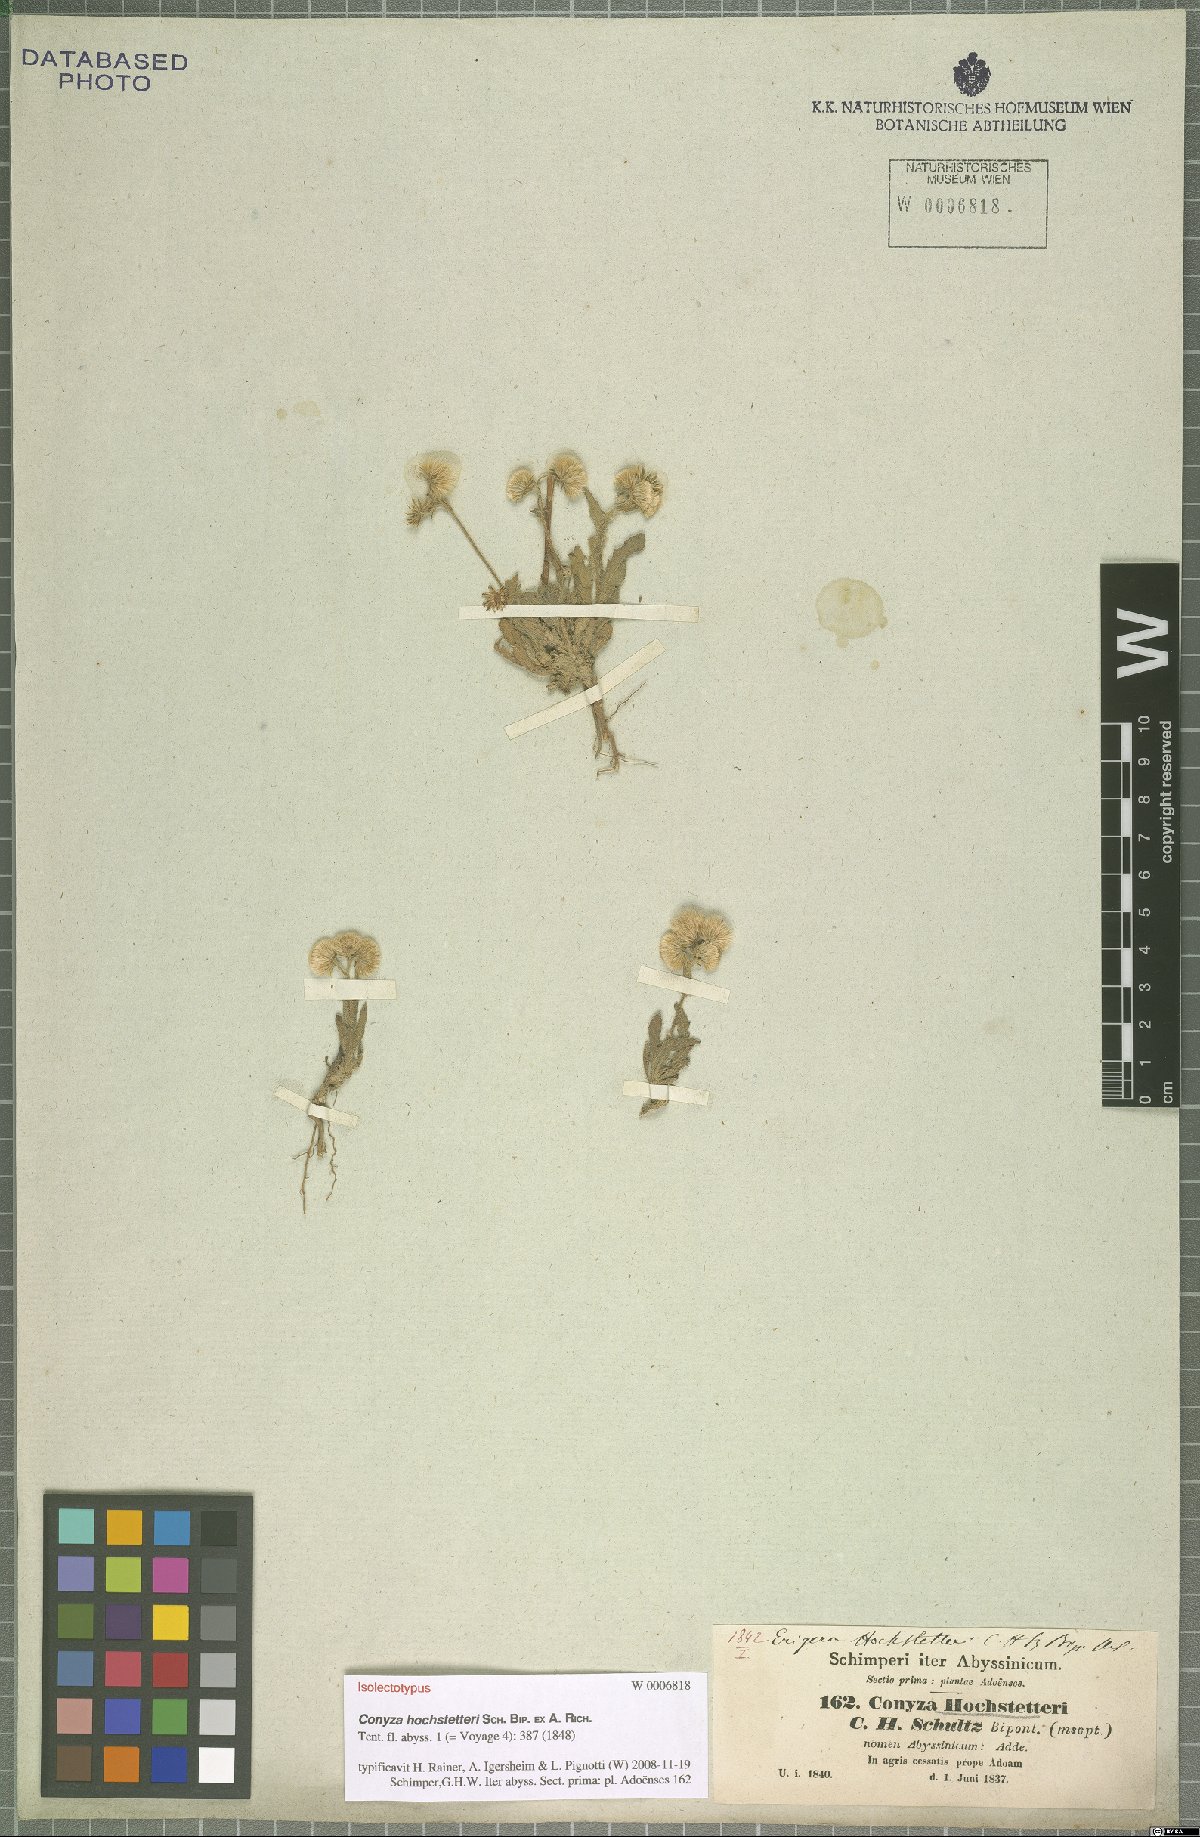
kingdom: Plantae
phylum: Tracheophyta
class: Magnoliopsida
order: Asterales
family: Asteraceae
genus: Eschenbachia
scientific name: Eschenbachia gouanii
